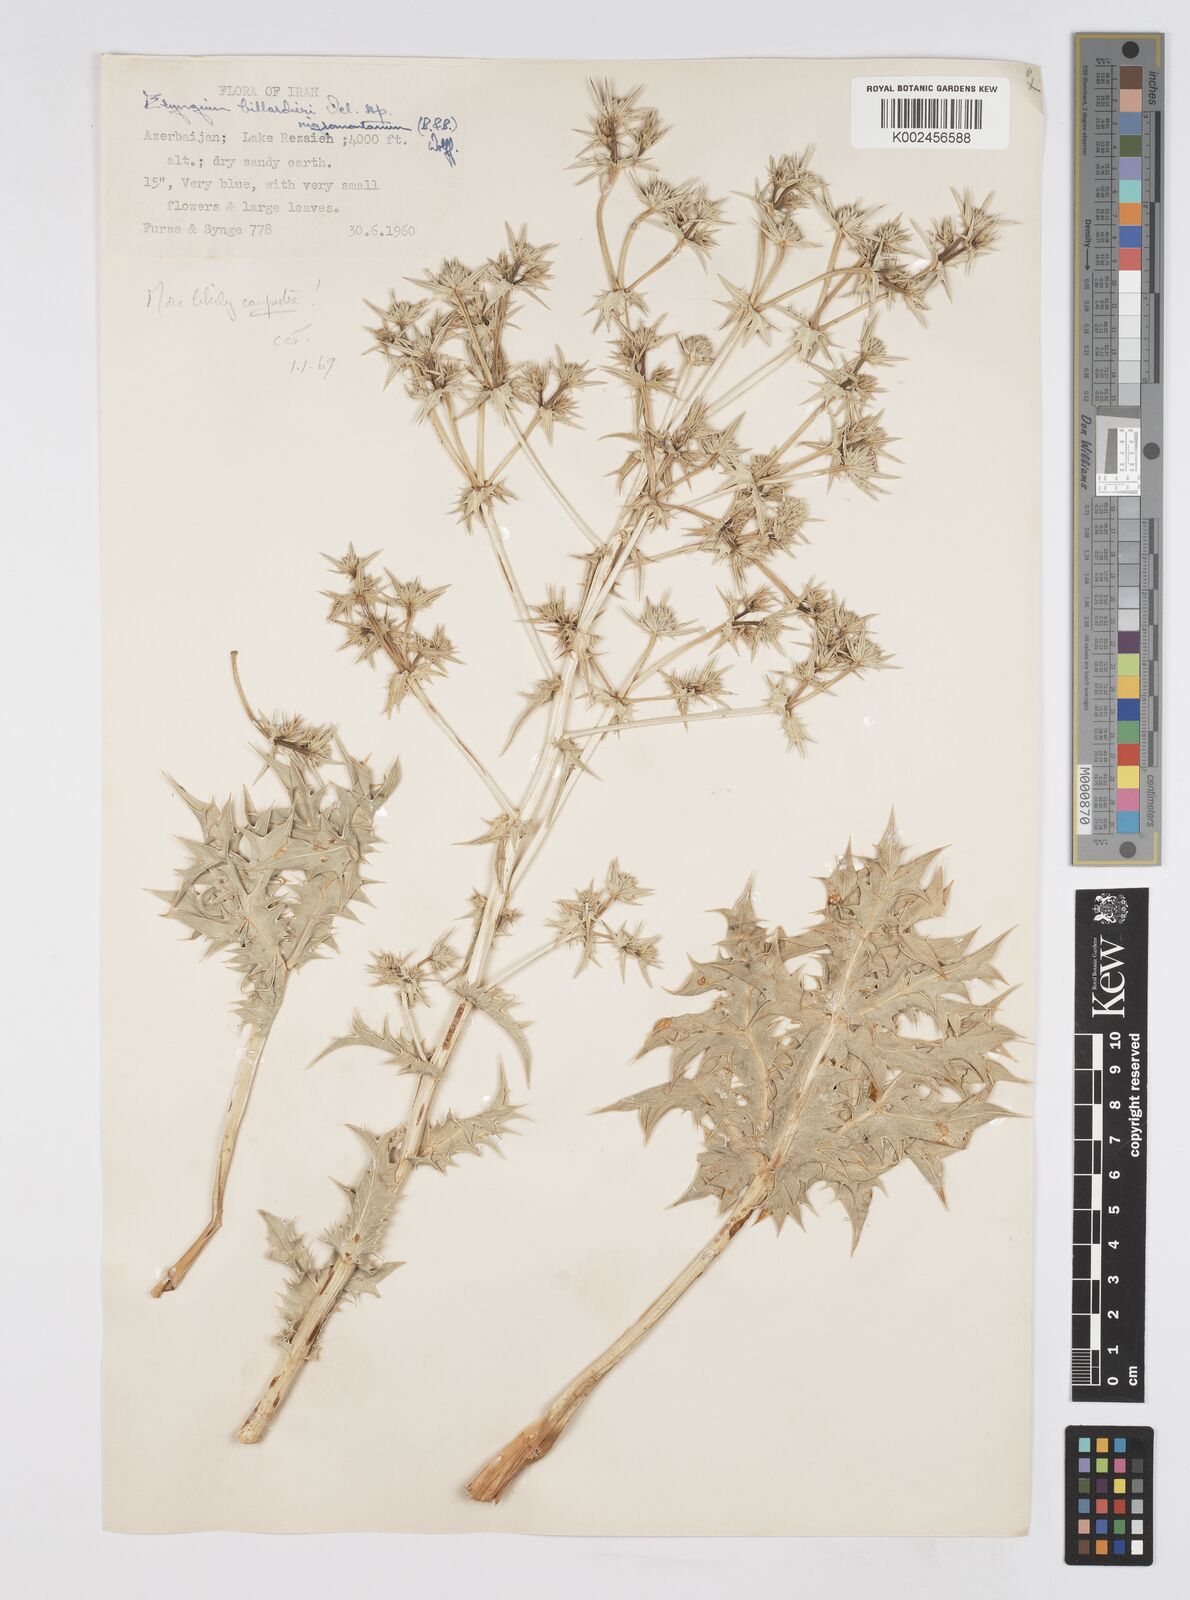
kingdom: Plantae
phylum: Tracheophyta
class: Magnoliopsida
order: Apiales
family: Apiaceae
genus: Eryngium
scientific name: Eryngium campestre
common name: Field eryngo
